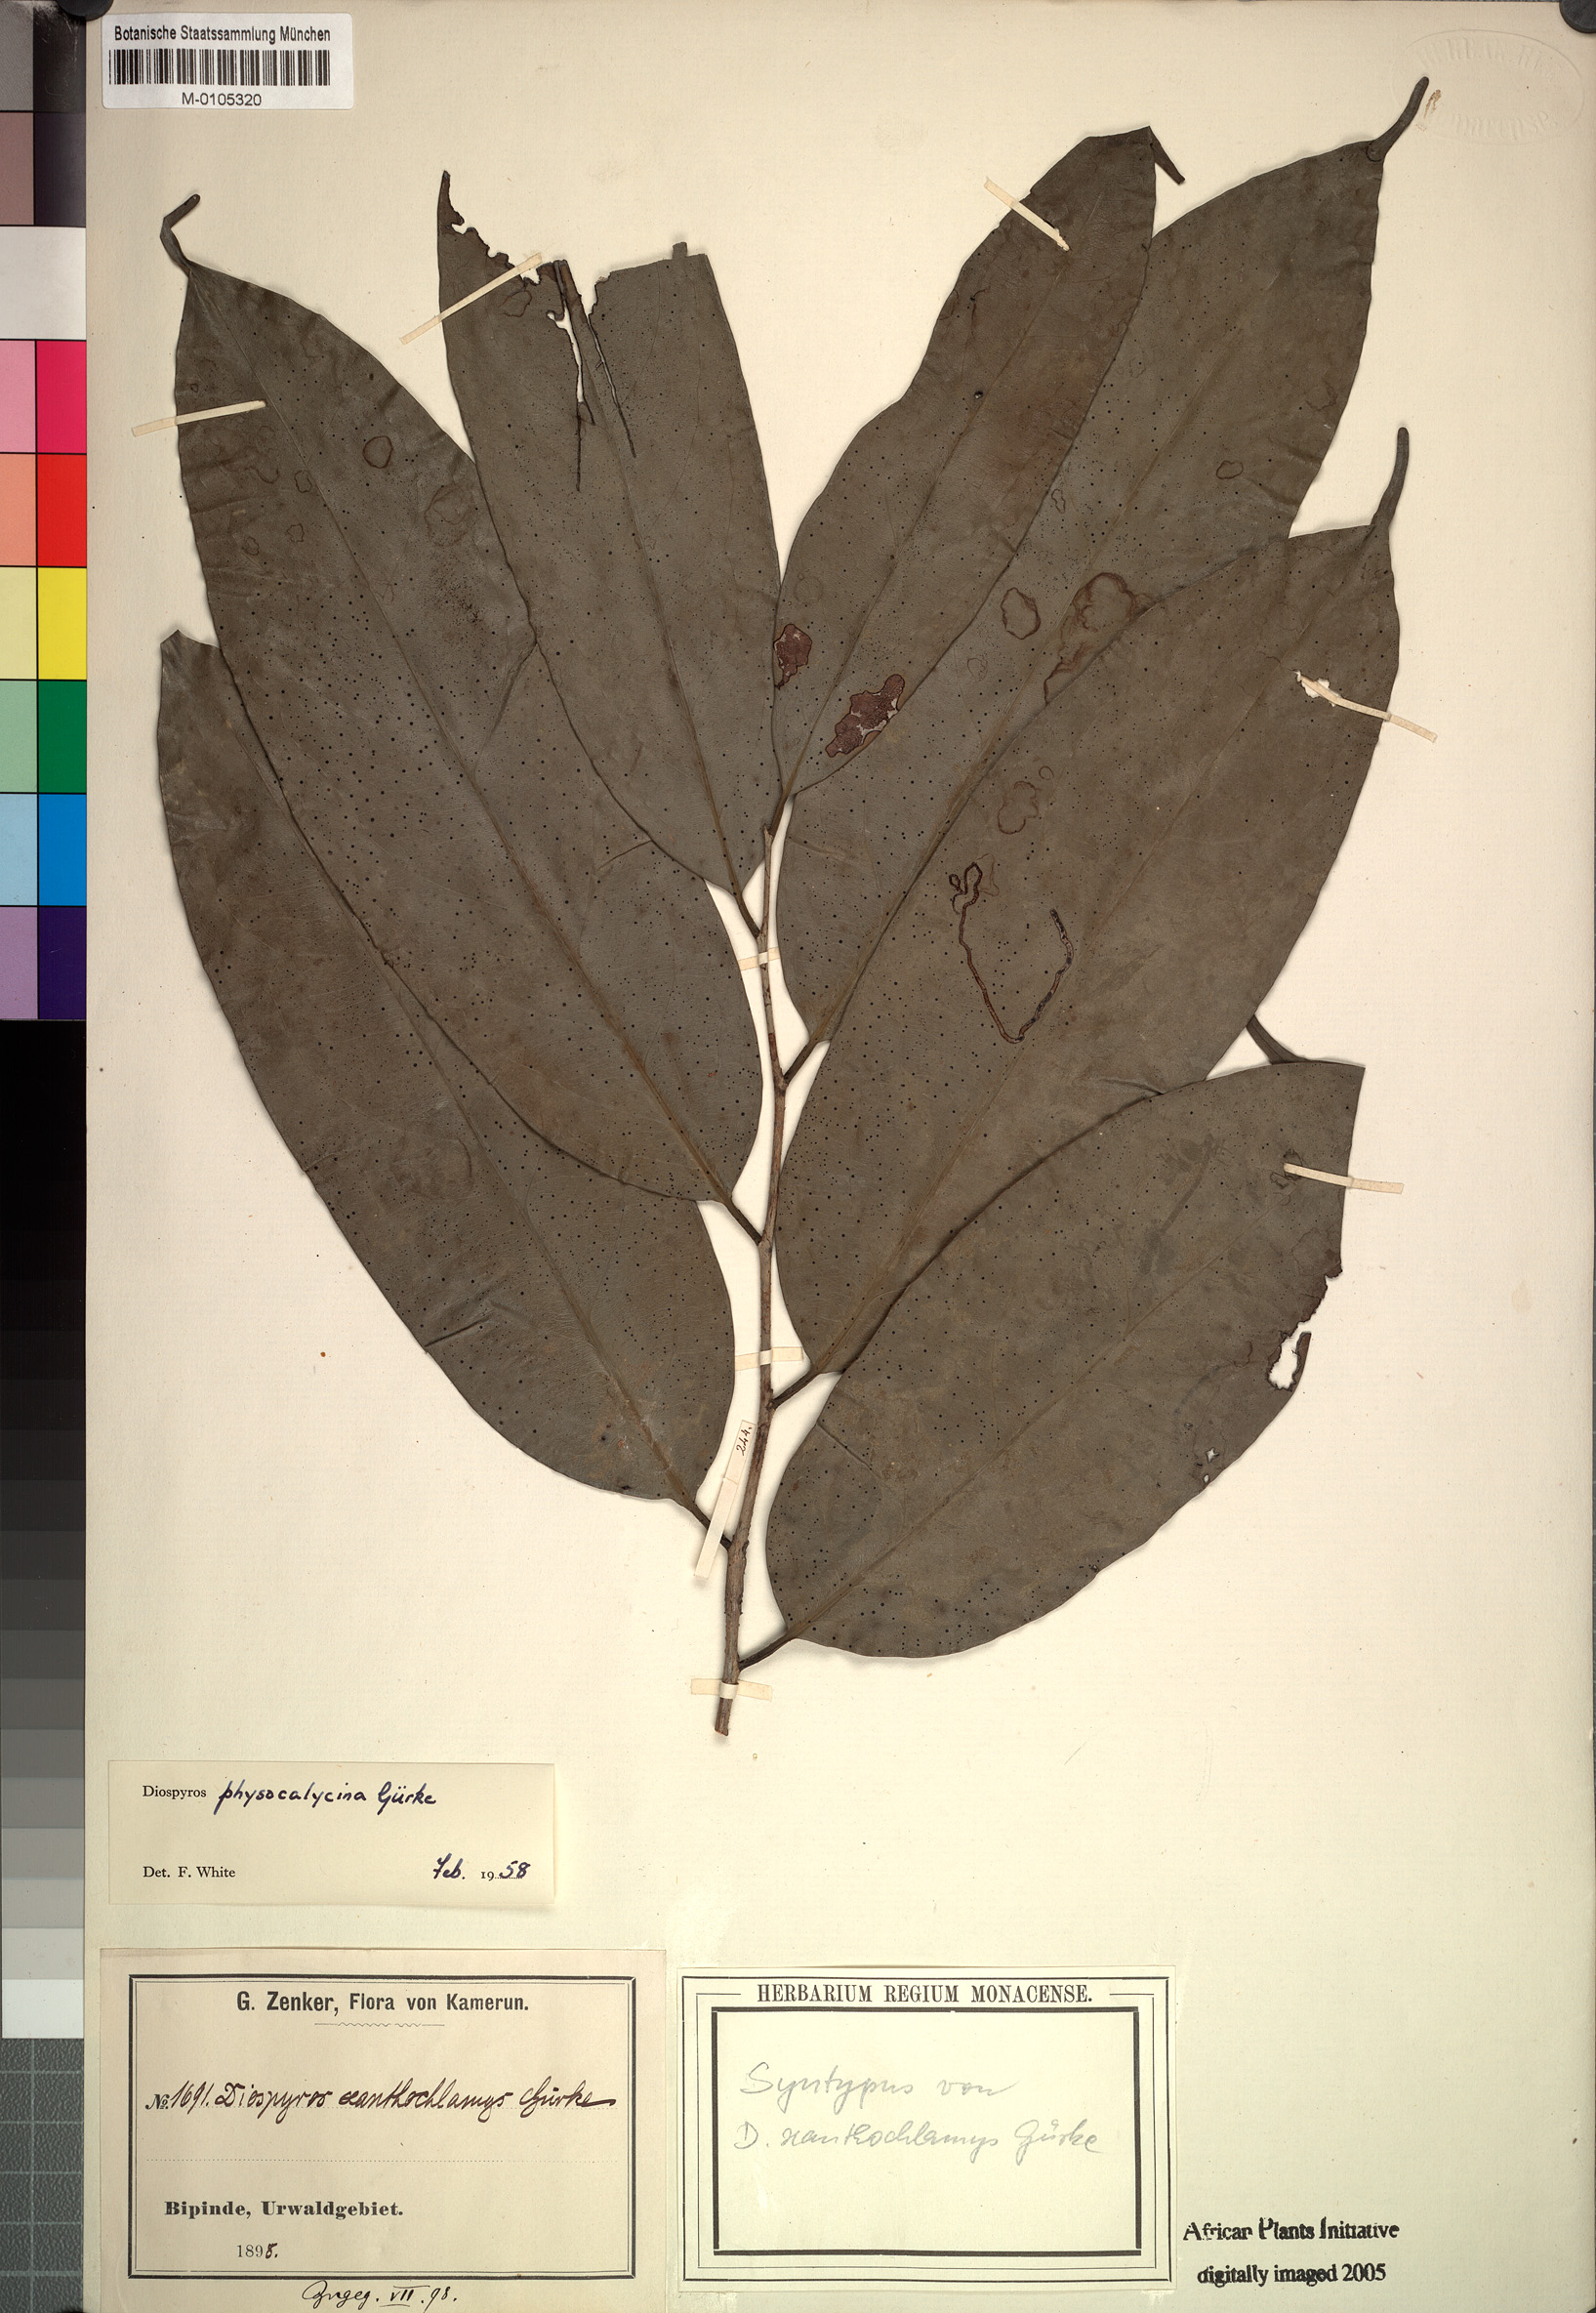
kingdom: Plantae
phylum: Tracheophyta
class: Magnoliopsida
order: Ericales
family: Ebenaceae
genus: Diospyros
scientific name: Diospyros physocalycina
